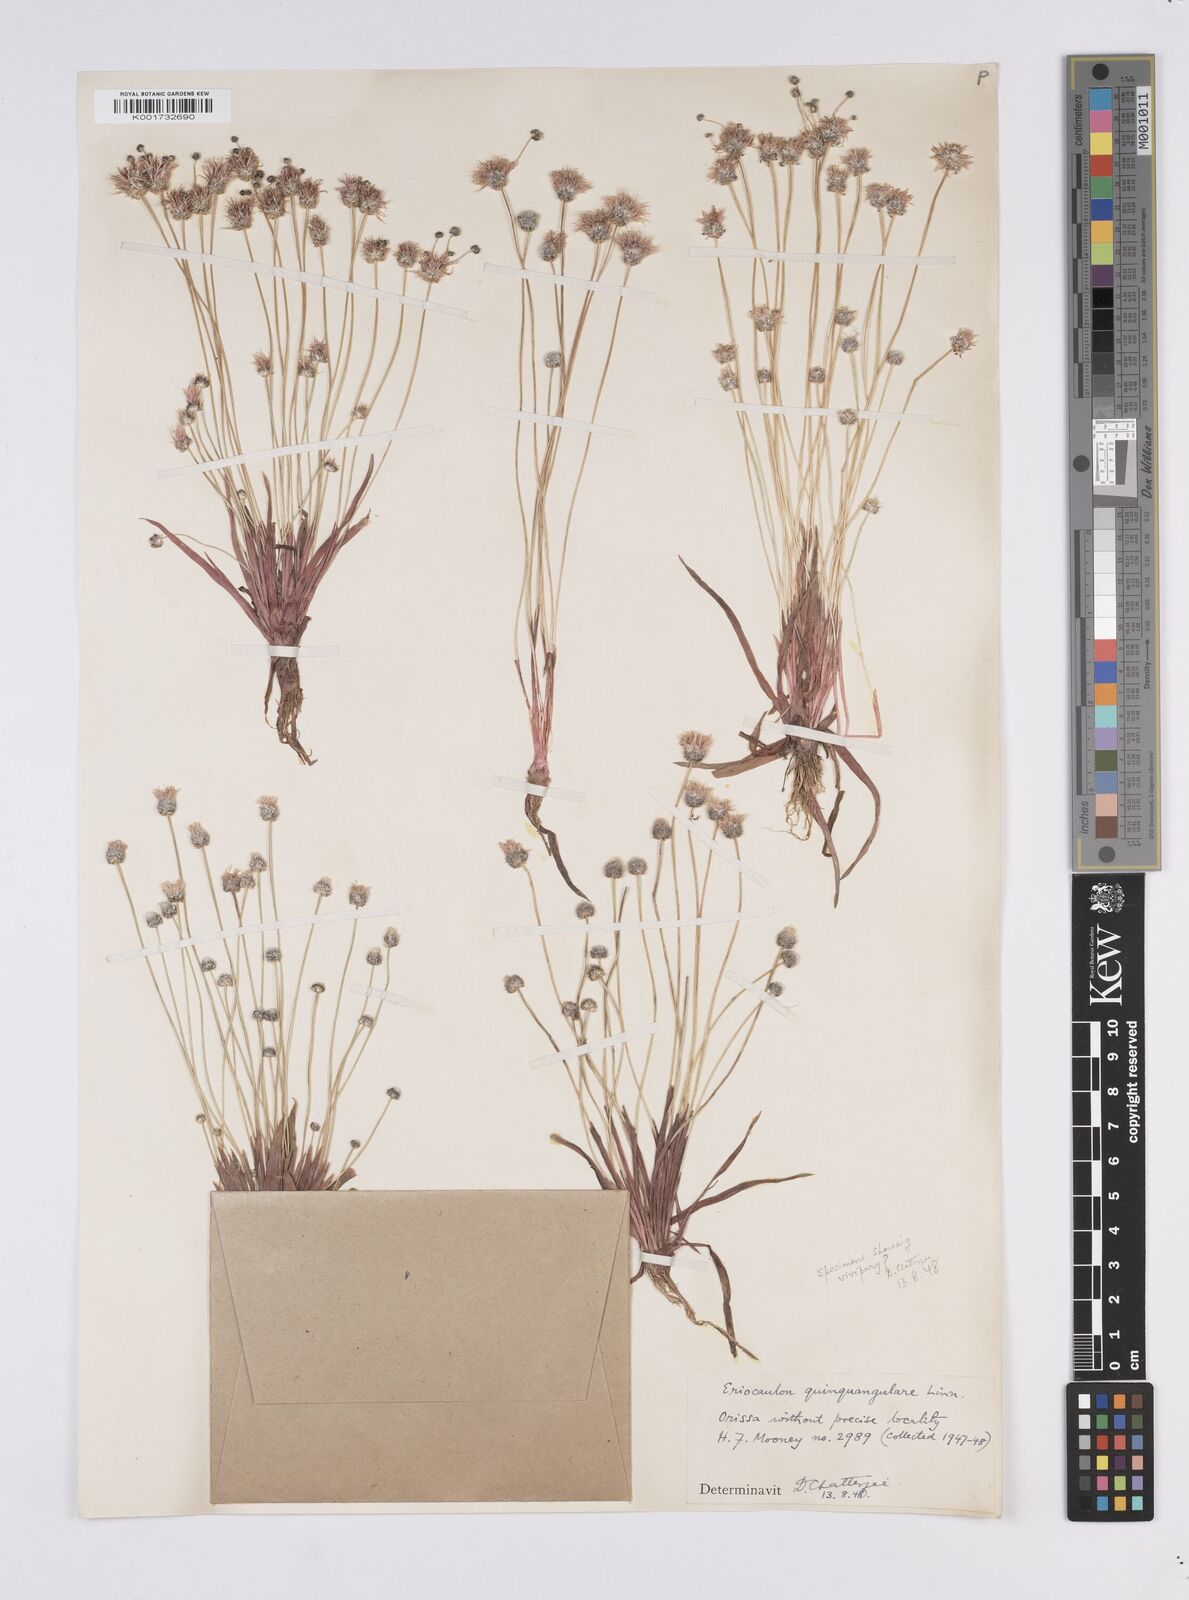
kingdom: Plantae
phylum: Tracheophyta
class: Liliopsida
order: Poales
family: Eriocaulaceae
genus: Eriocaulon
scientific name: Eriocaulon quinquangulare
